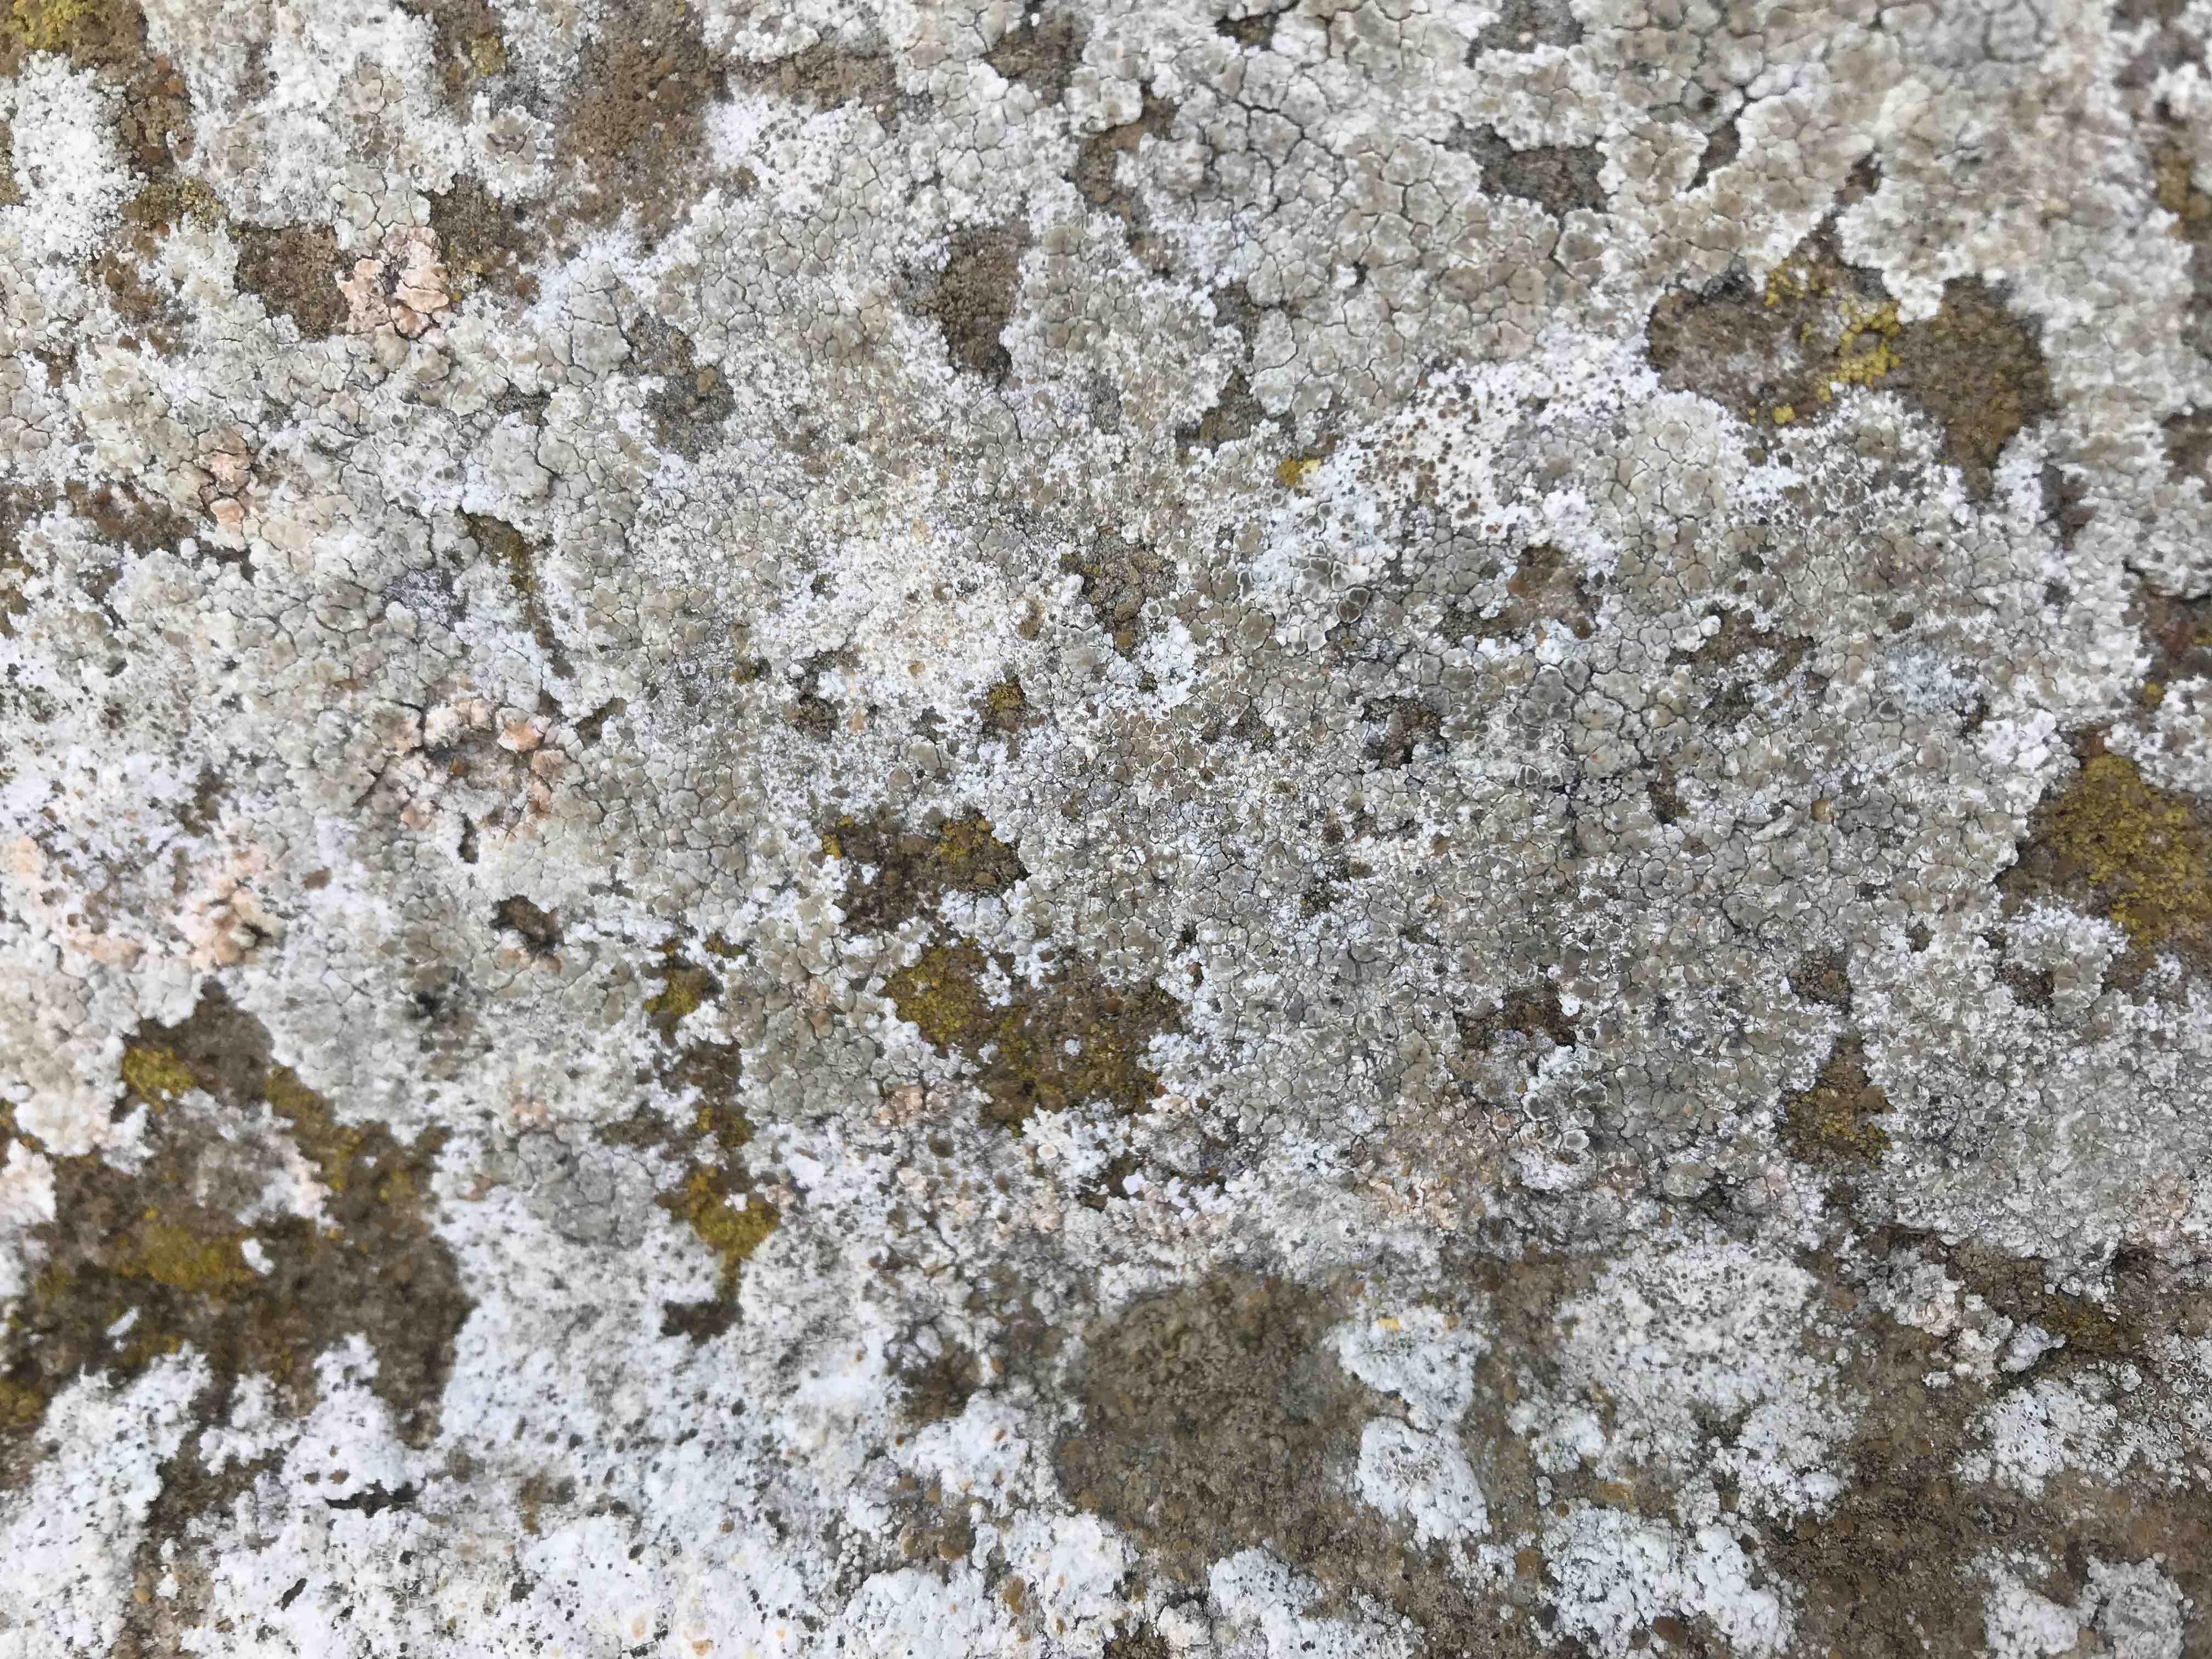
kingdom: Fungi
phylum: Ascomycota
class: Lecanoromycetes
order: Lecanorales
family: Lecanoraceae
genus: Polyozosia
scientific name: Polyozosia albescens
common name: cement-kantskivelav
